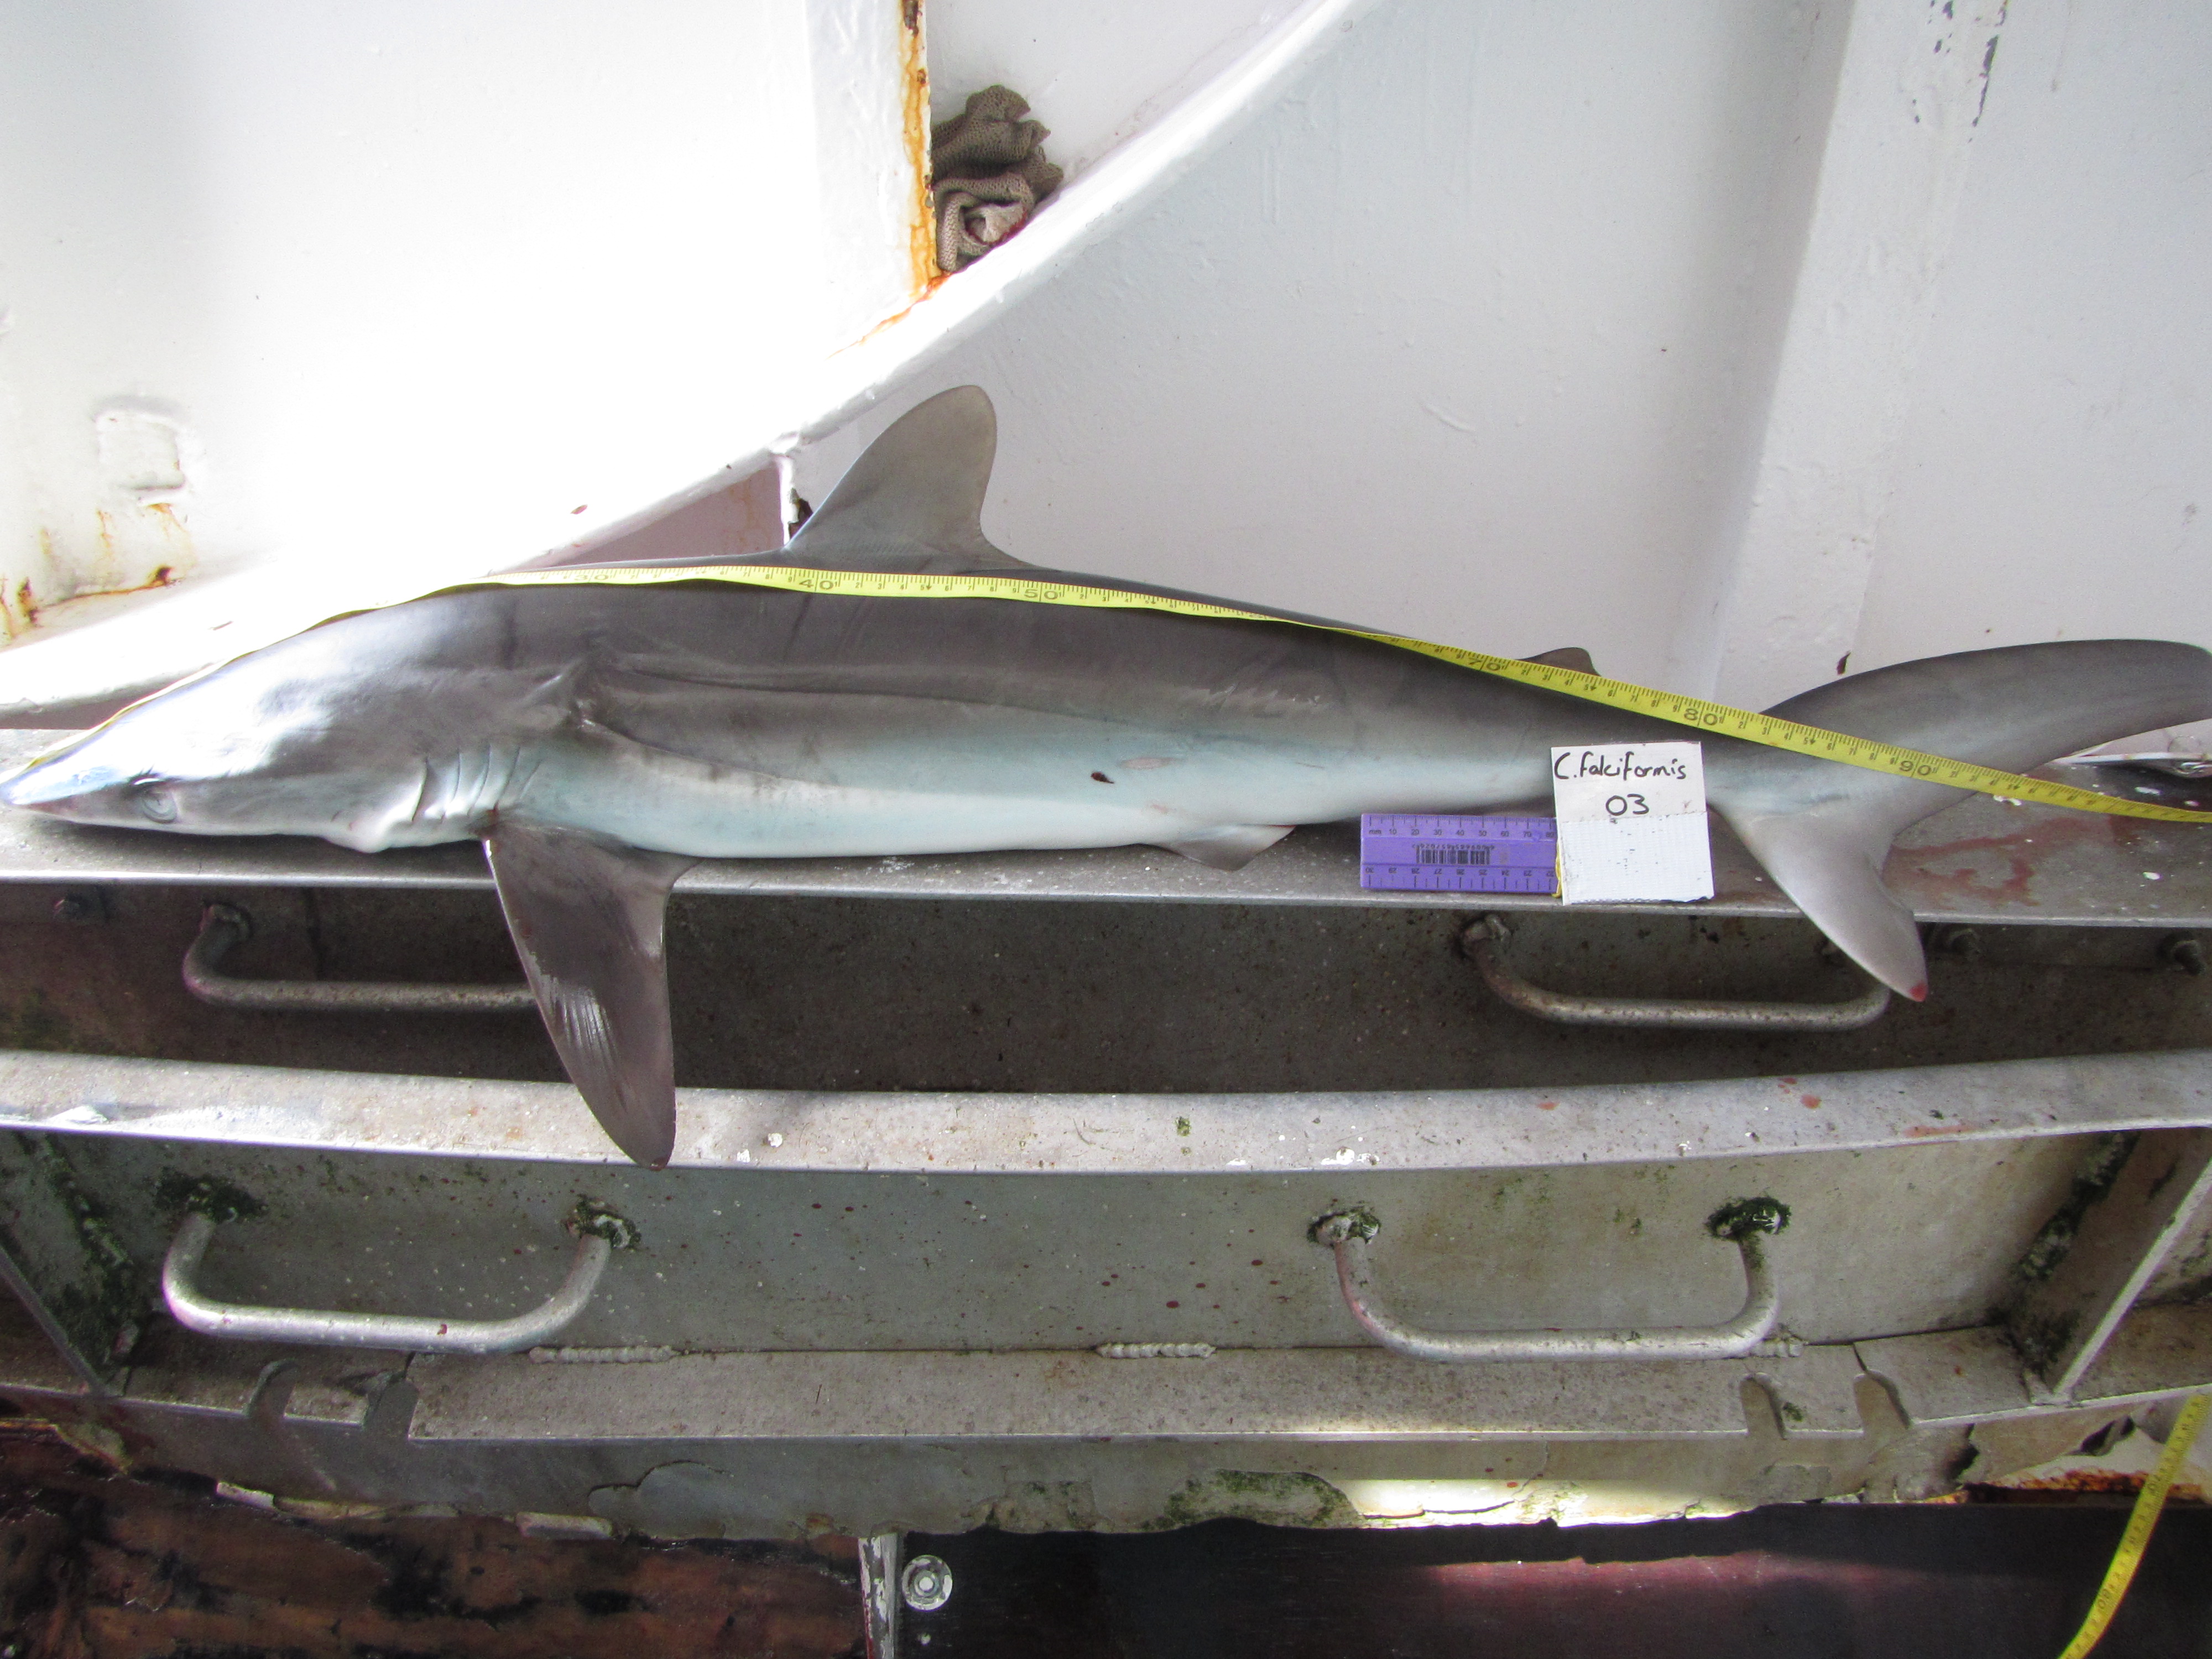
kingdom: Animalia
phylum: Chordata
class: Elasmobranchii
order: Carcharhiniformes
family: Carcharhinidae
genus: Carcharhinus
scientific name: Carcharhinus falciformis
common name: Silky shark
